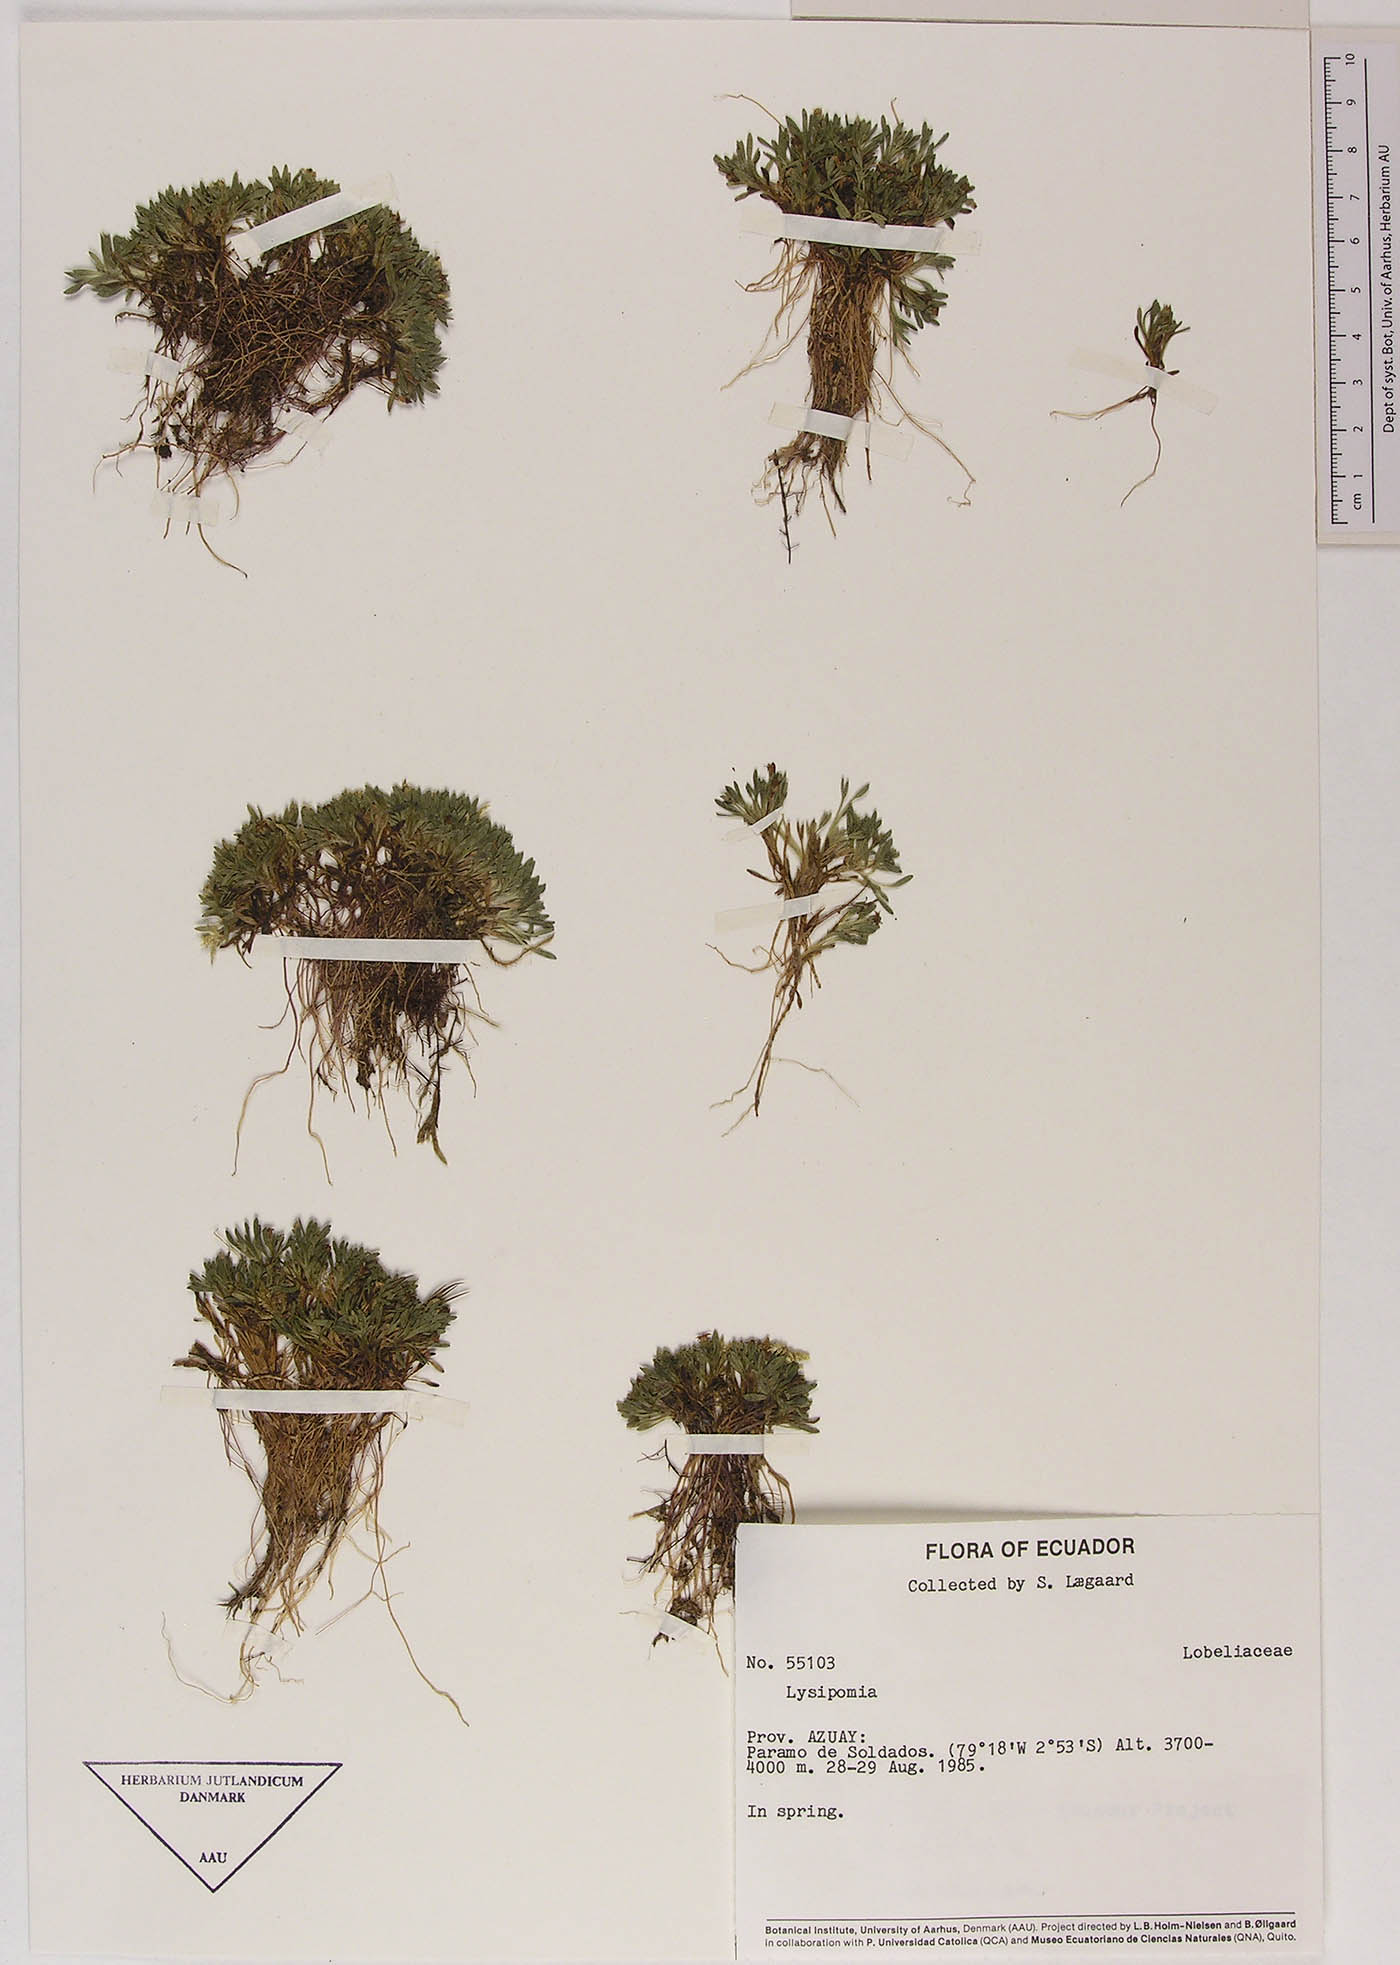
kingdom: Plantae
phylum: Tracheophyta
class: Magnoliopsida
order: Asterales
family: Campanulaceae
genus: Lysipomia
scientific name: Lysipomia
